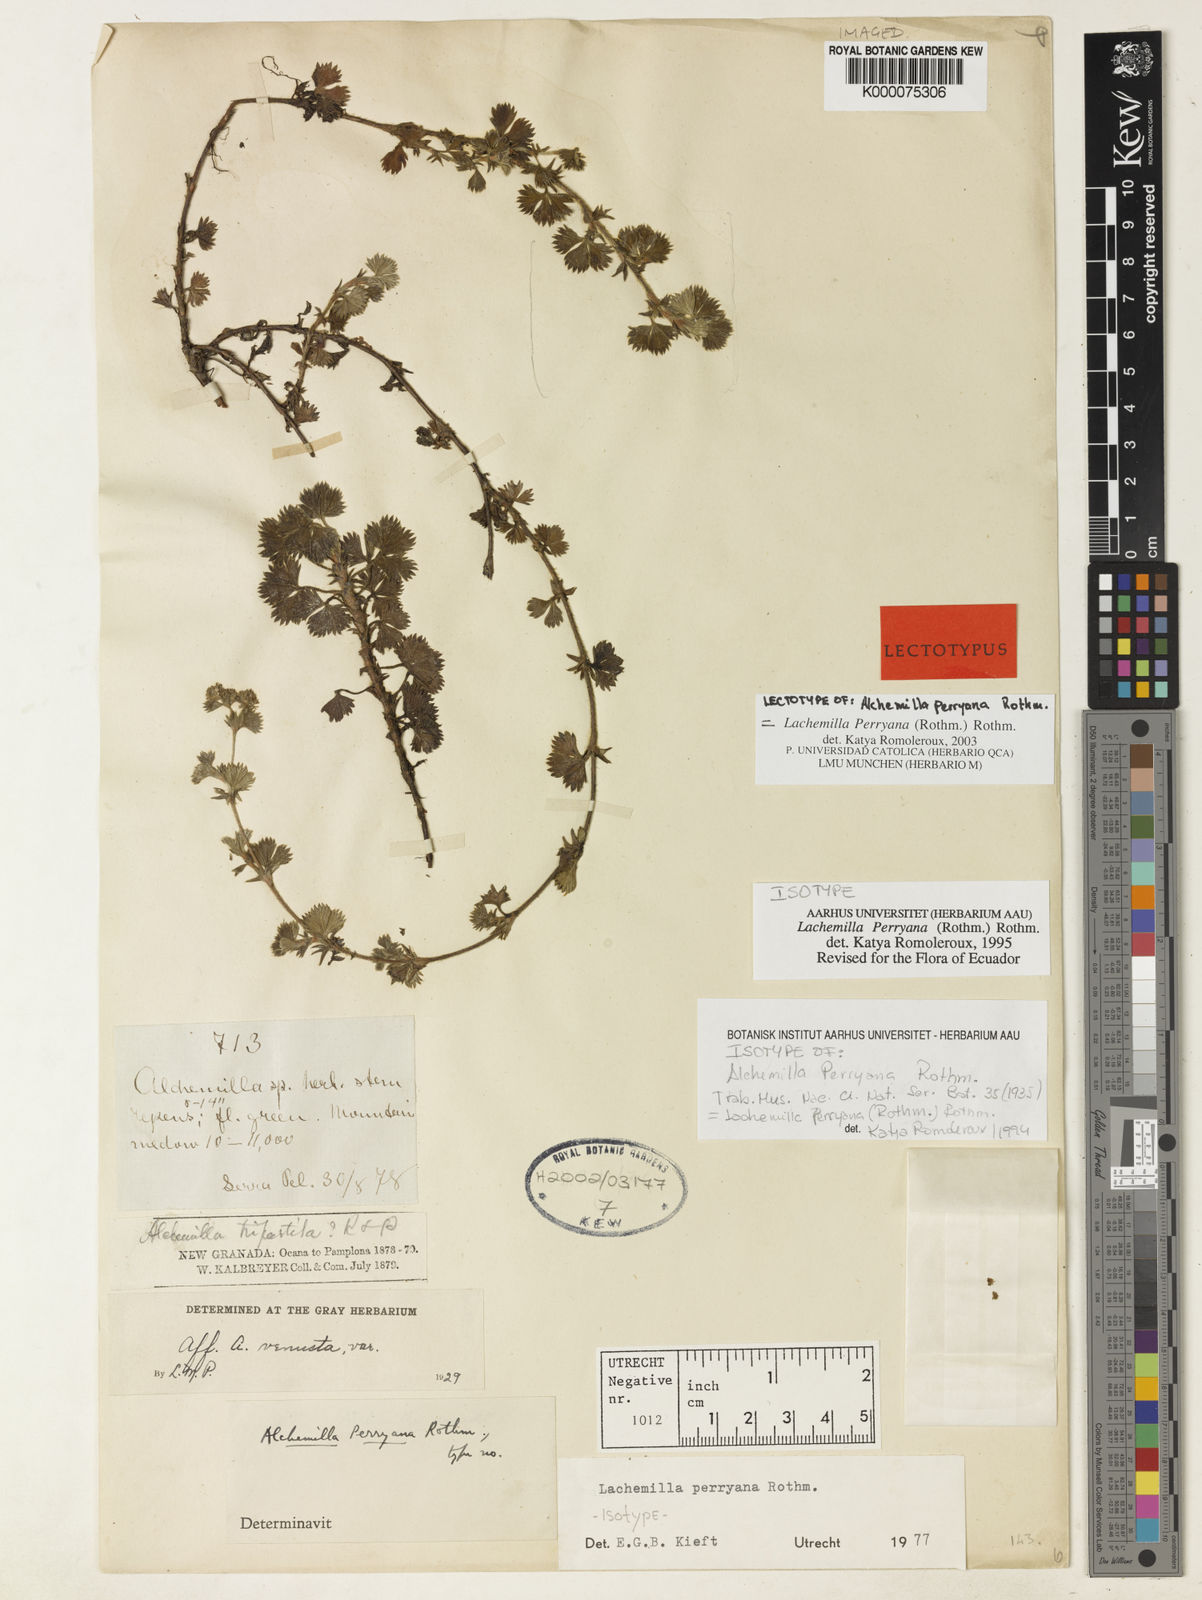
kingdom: Plantae
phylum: Tracheophyta
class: Magnoliopsida
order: Rosales
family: Rosaceae
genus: Lachemilla
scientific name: Lachemilla perryana
